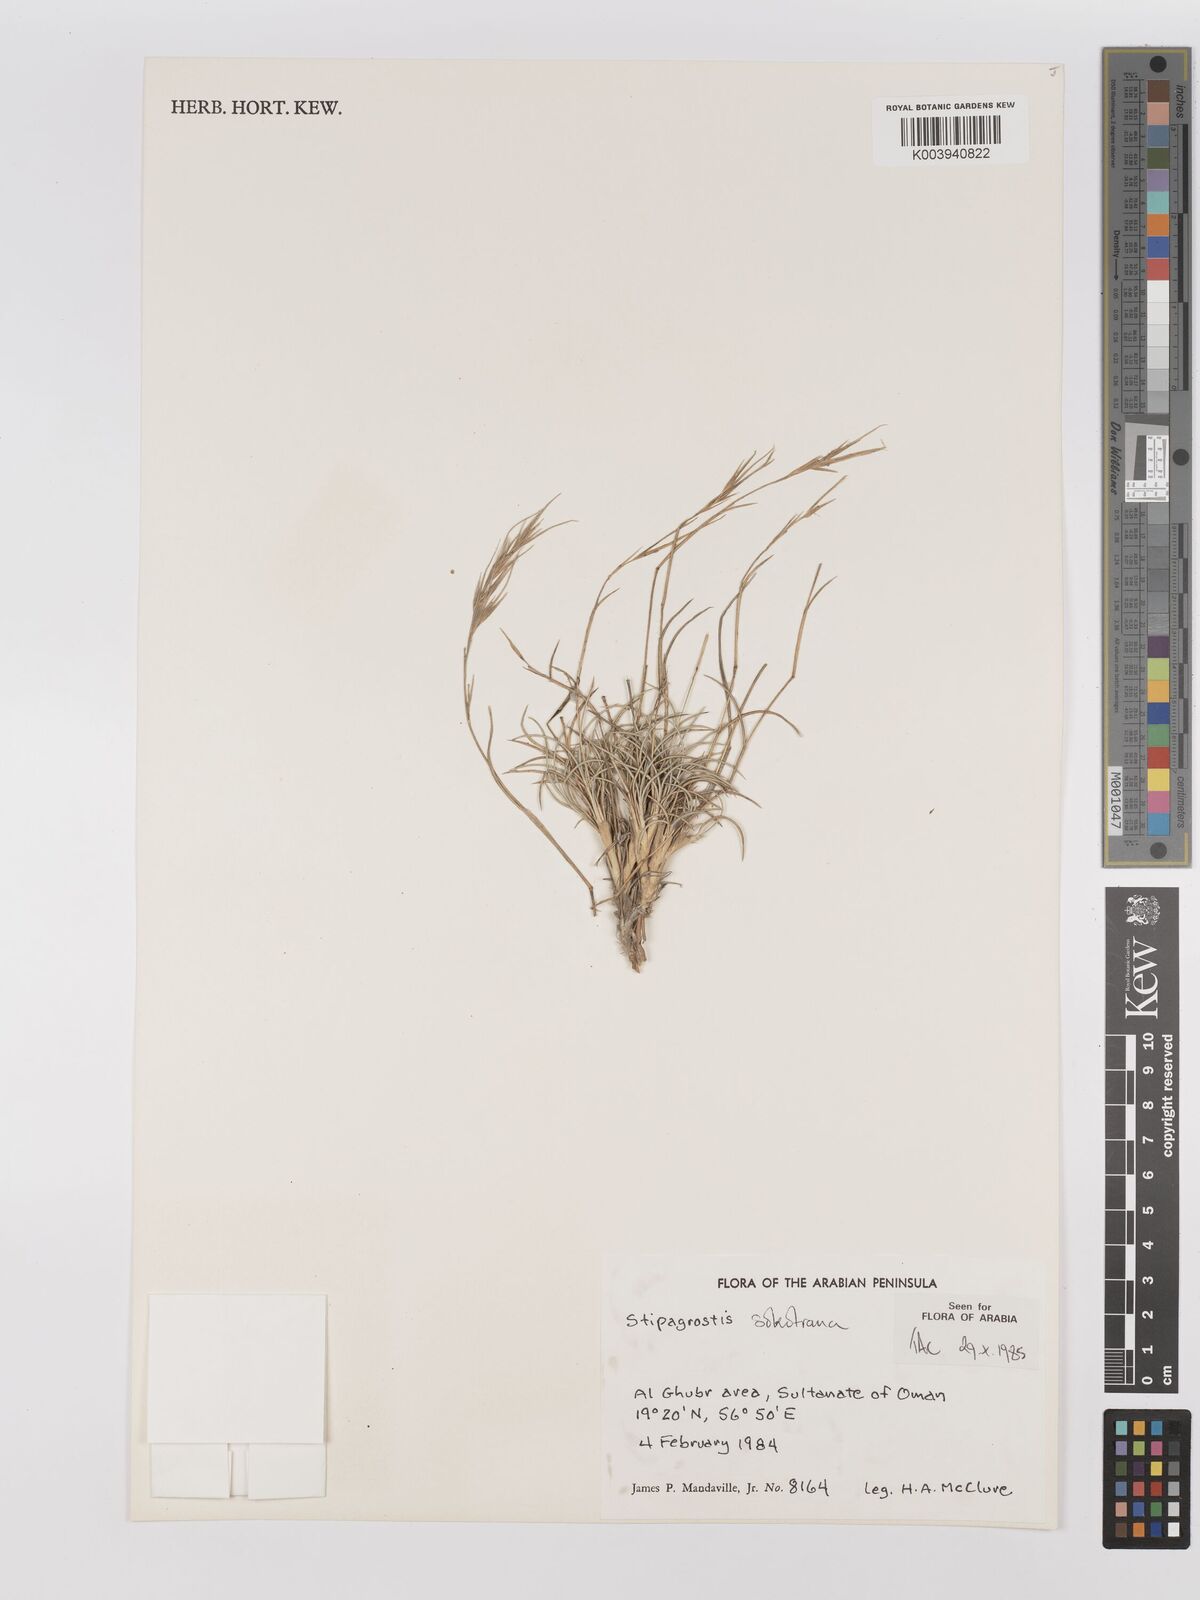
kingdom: Plantae
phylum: Tracheophyta
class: Liliopsida
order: Poales
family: Poaceae
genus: Stipagrostis
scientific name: Stipagrostis sokotrana
